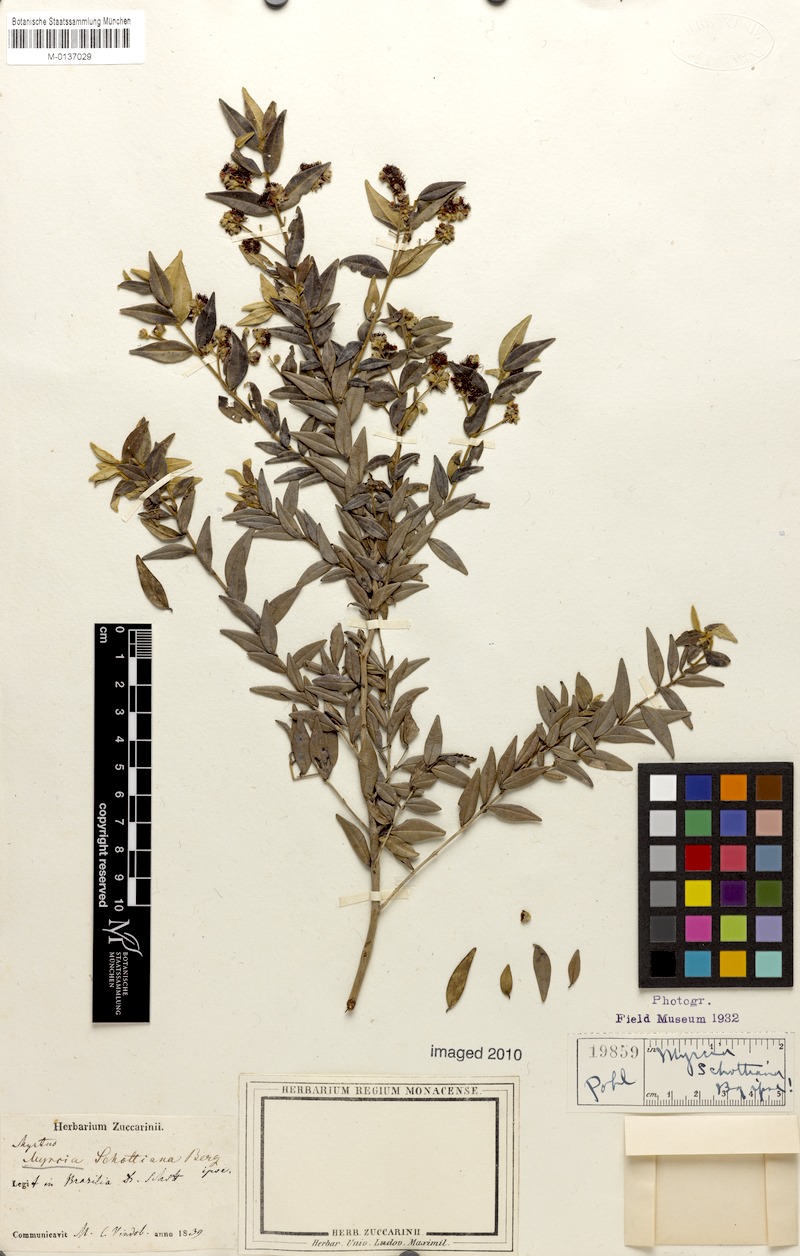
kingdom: Plantae
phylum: Tracheophyta
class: Magnoliopsida
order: Myrtales
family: Myrtaceae
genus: Myrcia
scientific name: Myrcia schottiana
